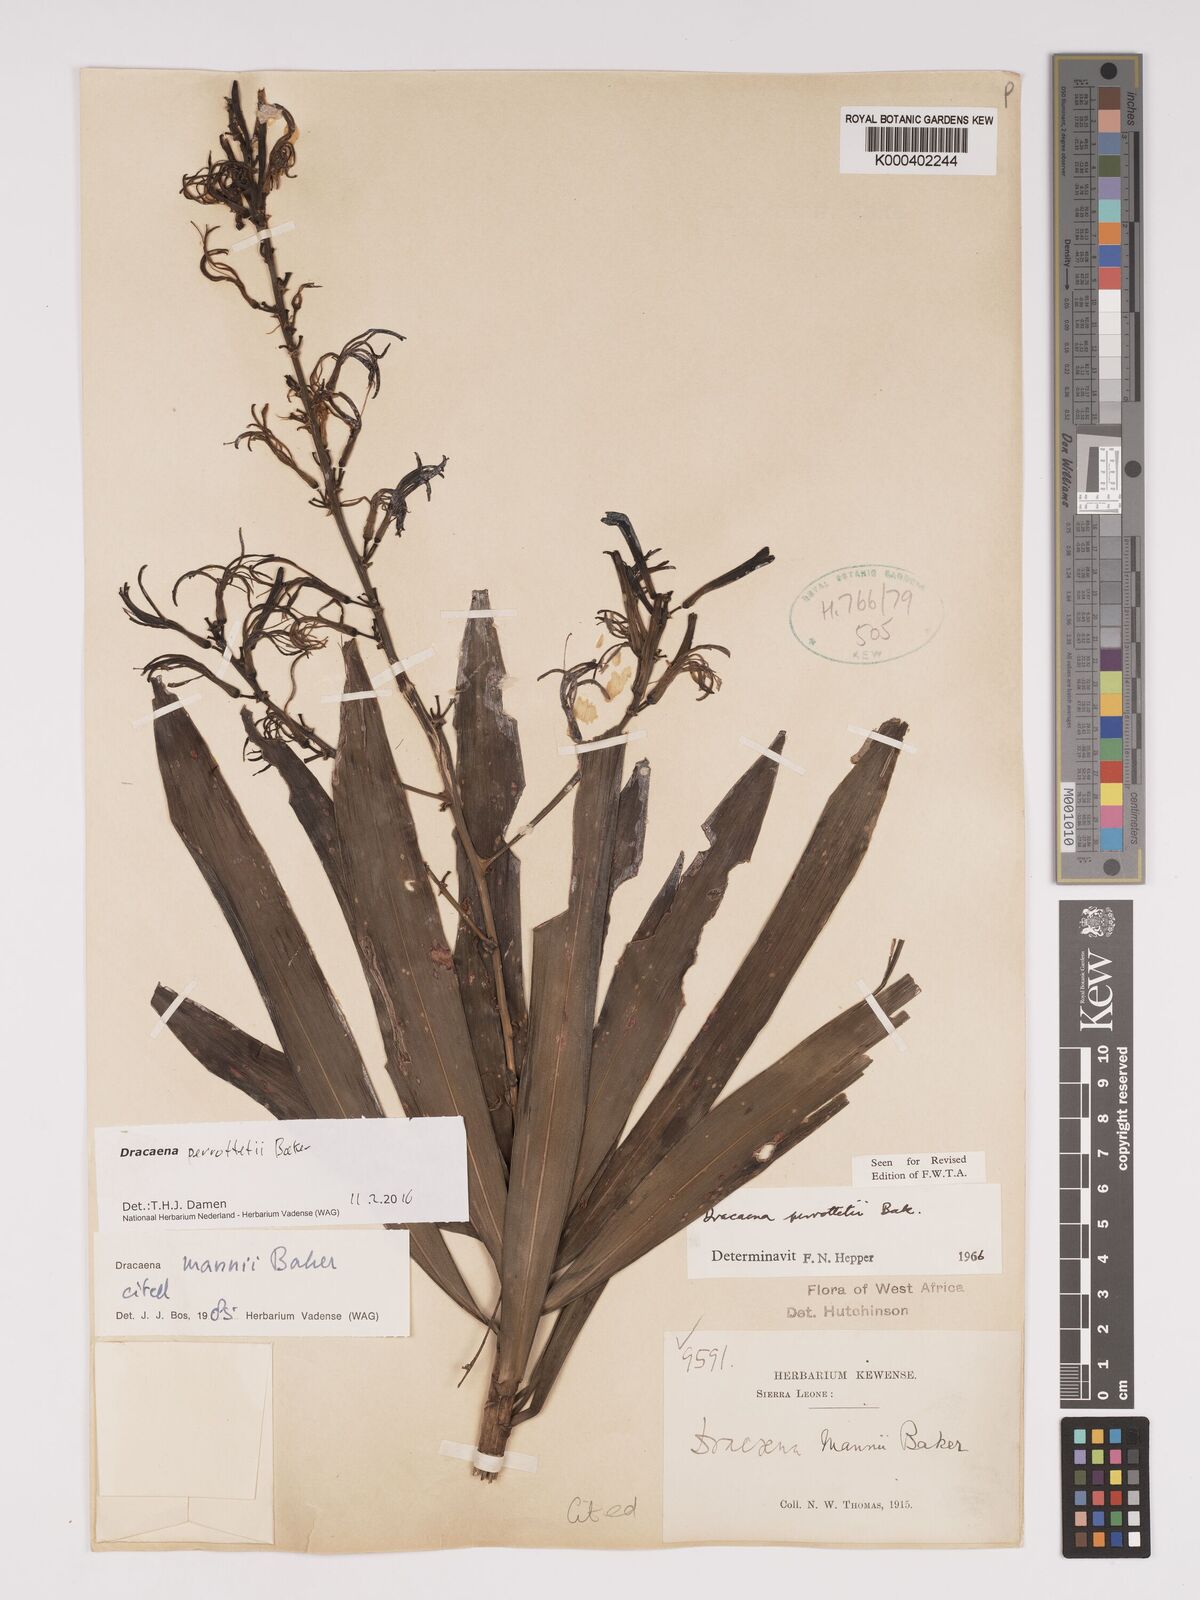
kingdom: Plantae
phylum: Tracheophyta
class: Liliopsida
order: Asparagales
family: Asparagaceae
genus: Dracaena
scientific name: Dracaena perrottetii
